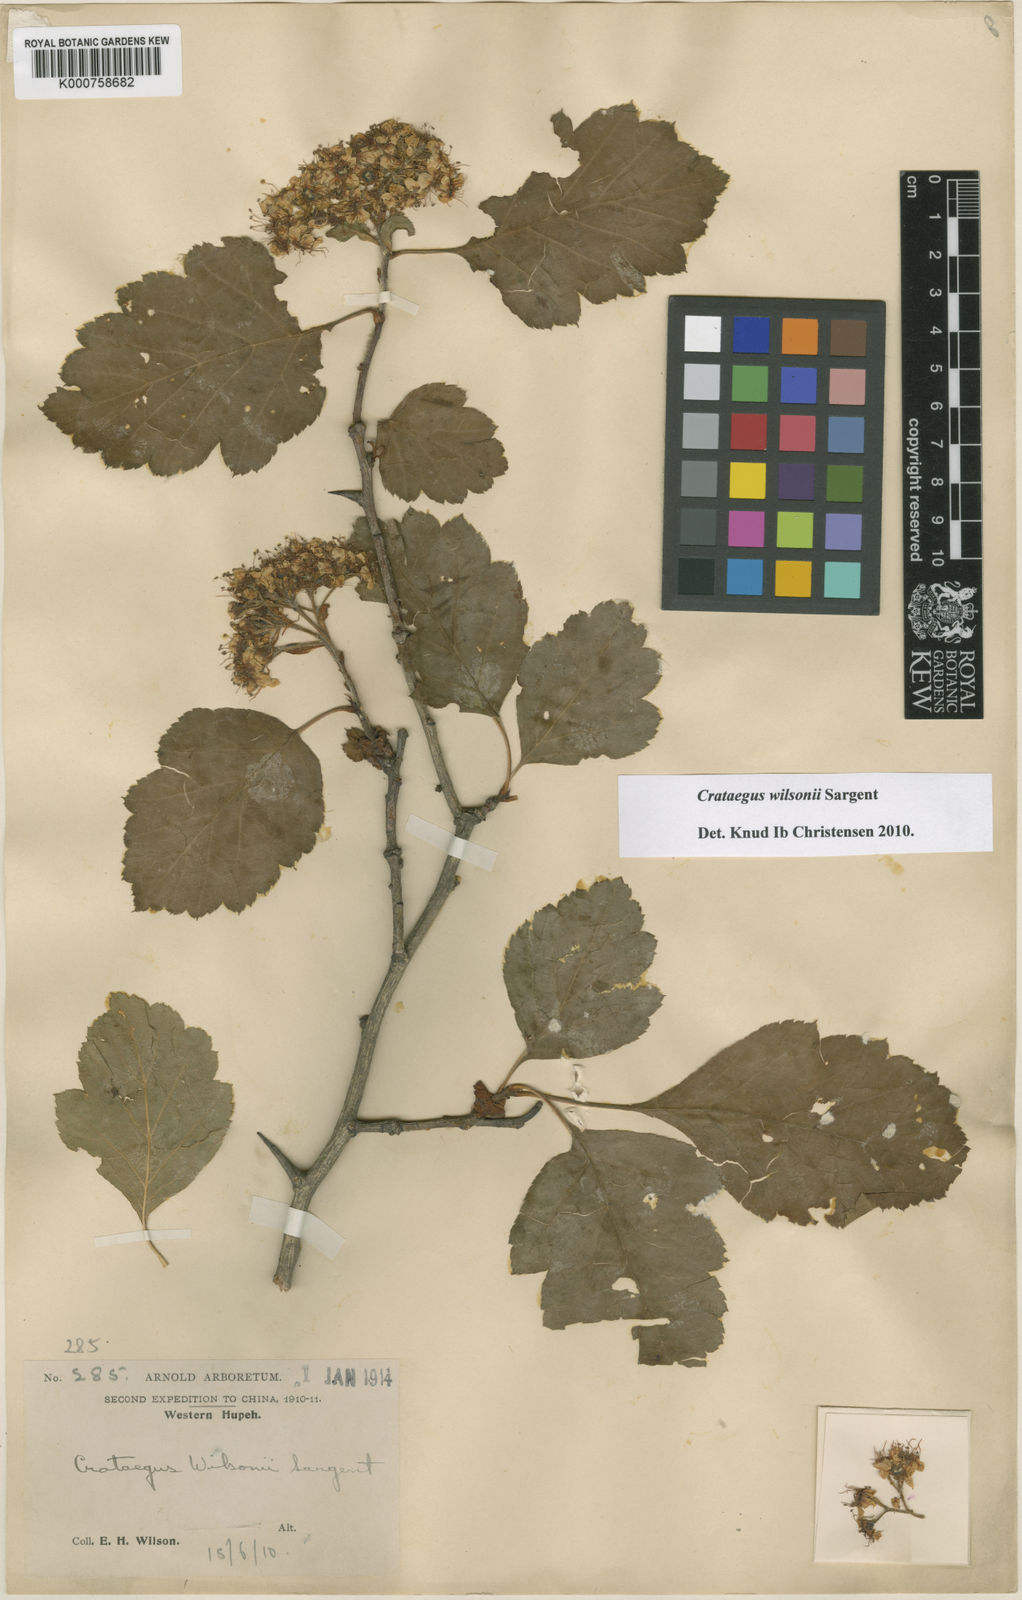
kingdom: Plantae
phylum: Tracheophyta
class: Magnoliopsida
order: Rosales
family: Rosaceae
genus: Crataegus
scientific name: Crataegus wilsonii
